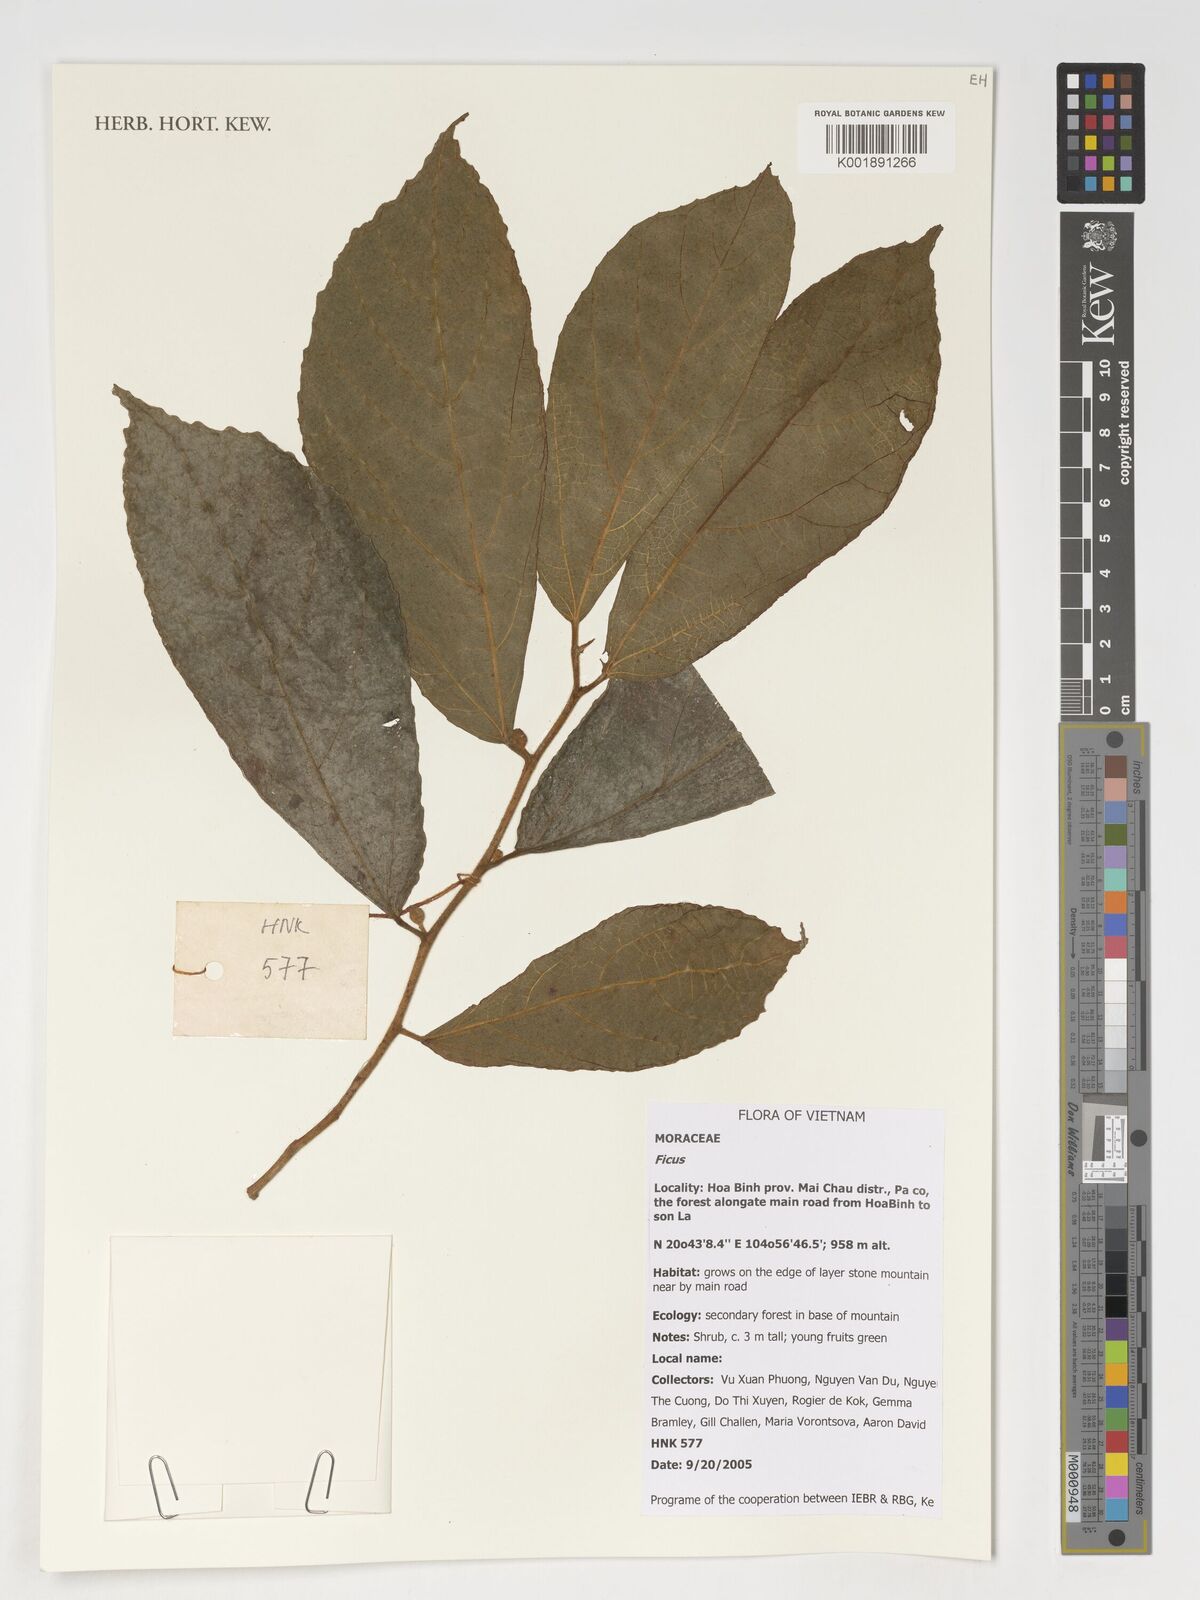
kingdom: Plantae
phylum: Tracheophyta
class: Magnoliopsida
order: Rosales
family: Moraceae
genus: Ficus
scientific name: Ficus
